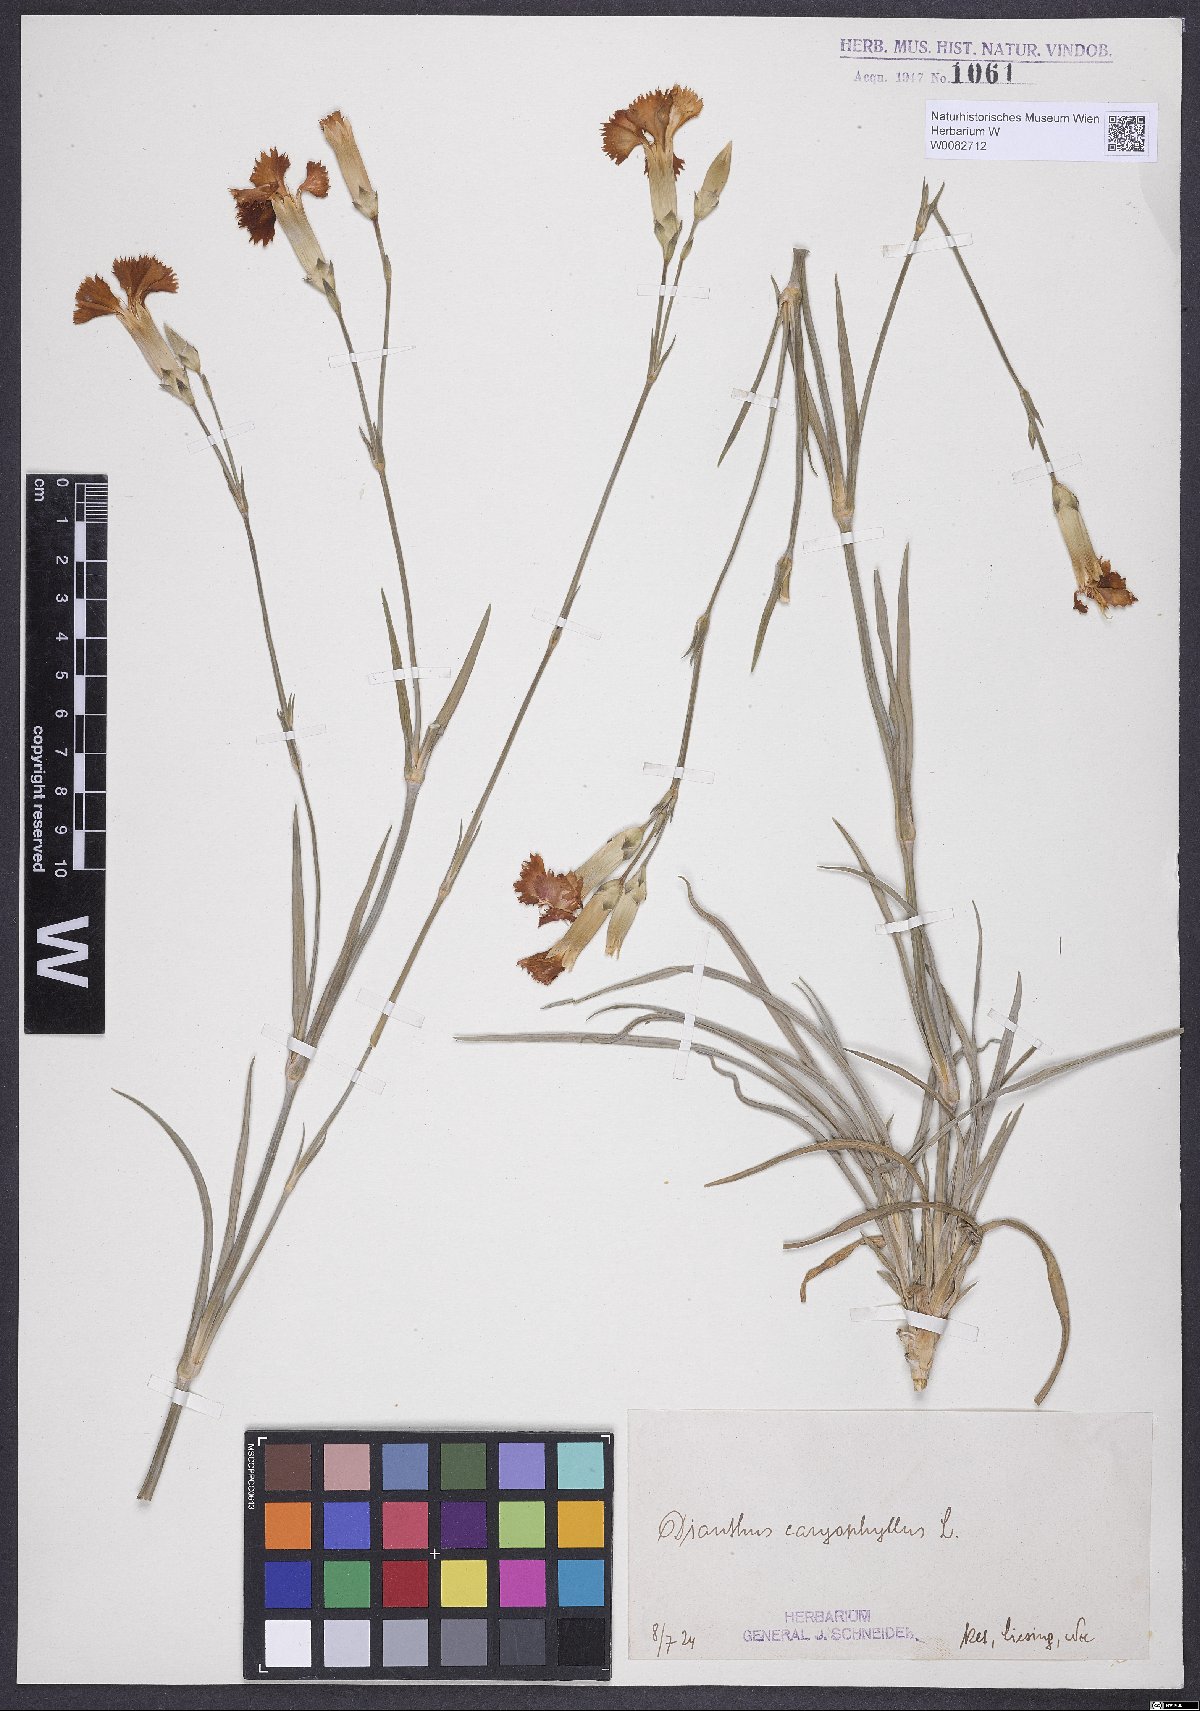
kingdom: Plantae
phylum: Tracheophyta
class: Magnoliopsida
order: Caryophyllales
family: Caryophyllaceae
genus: Dianthus
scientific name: Dianthus caryophyllus
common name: Clove pink
